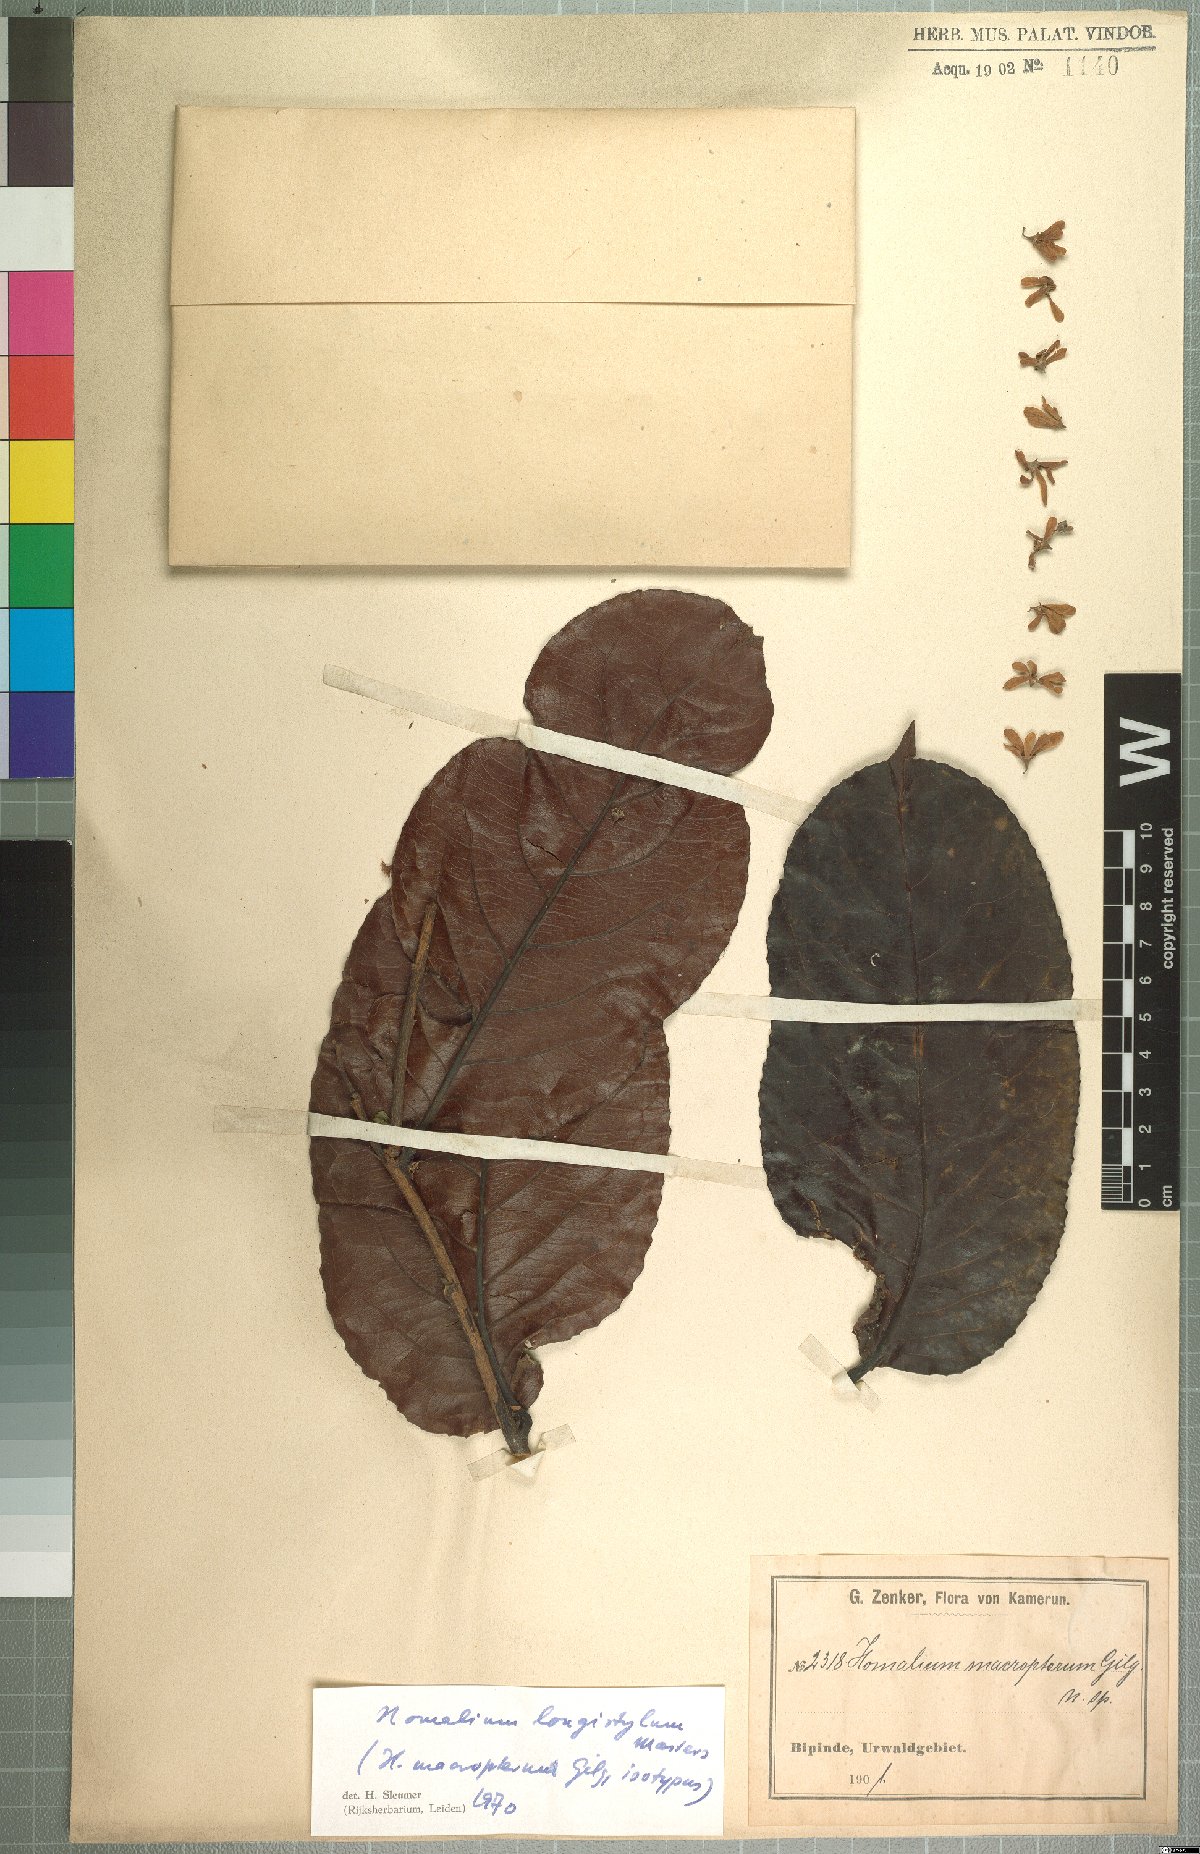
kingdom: Plantae
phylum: Tracheophyta
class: Magnoliopsida
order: Malpighiales
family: Salicaceae
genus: Homalium
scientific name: Homalium longistylum
